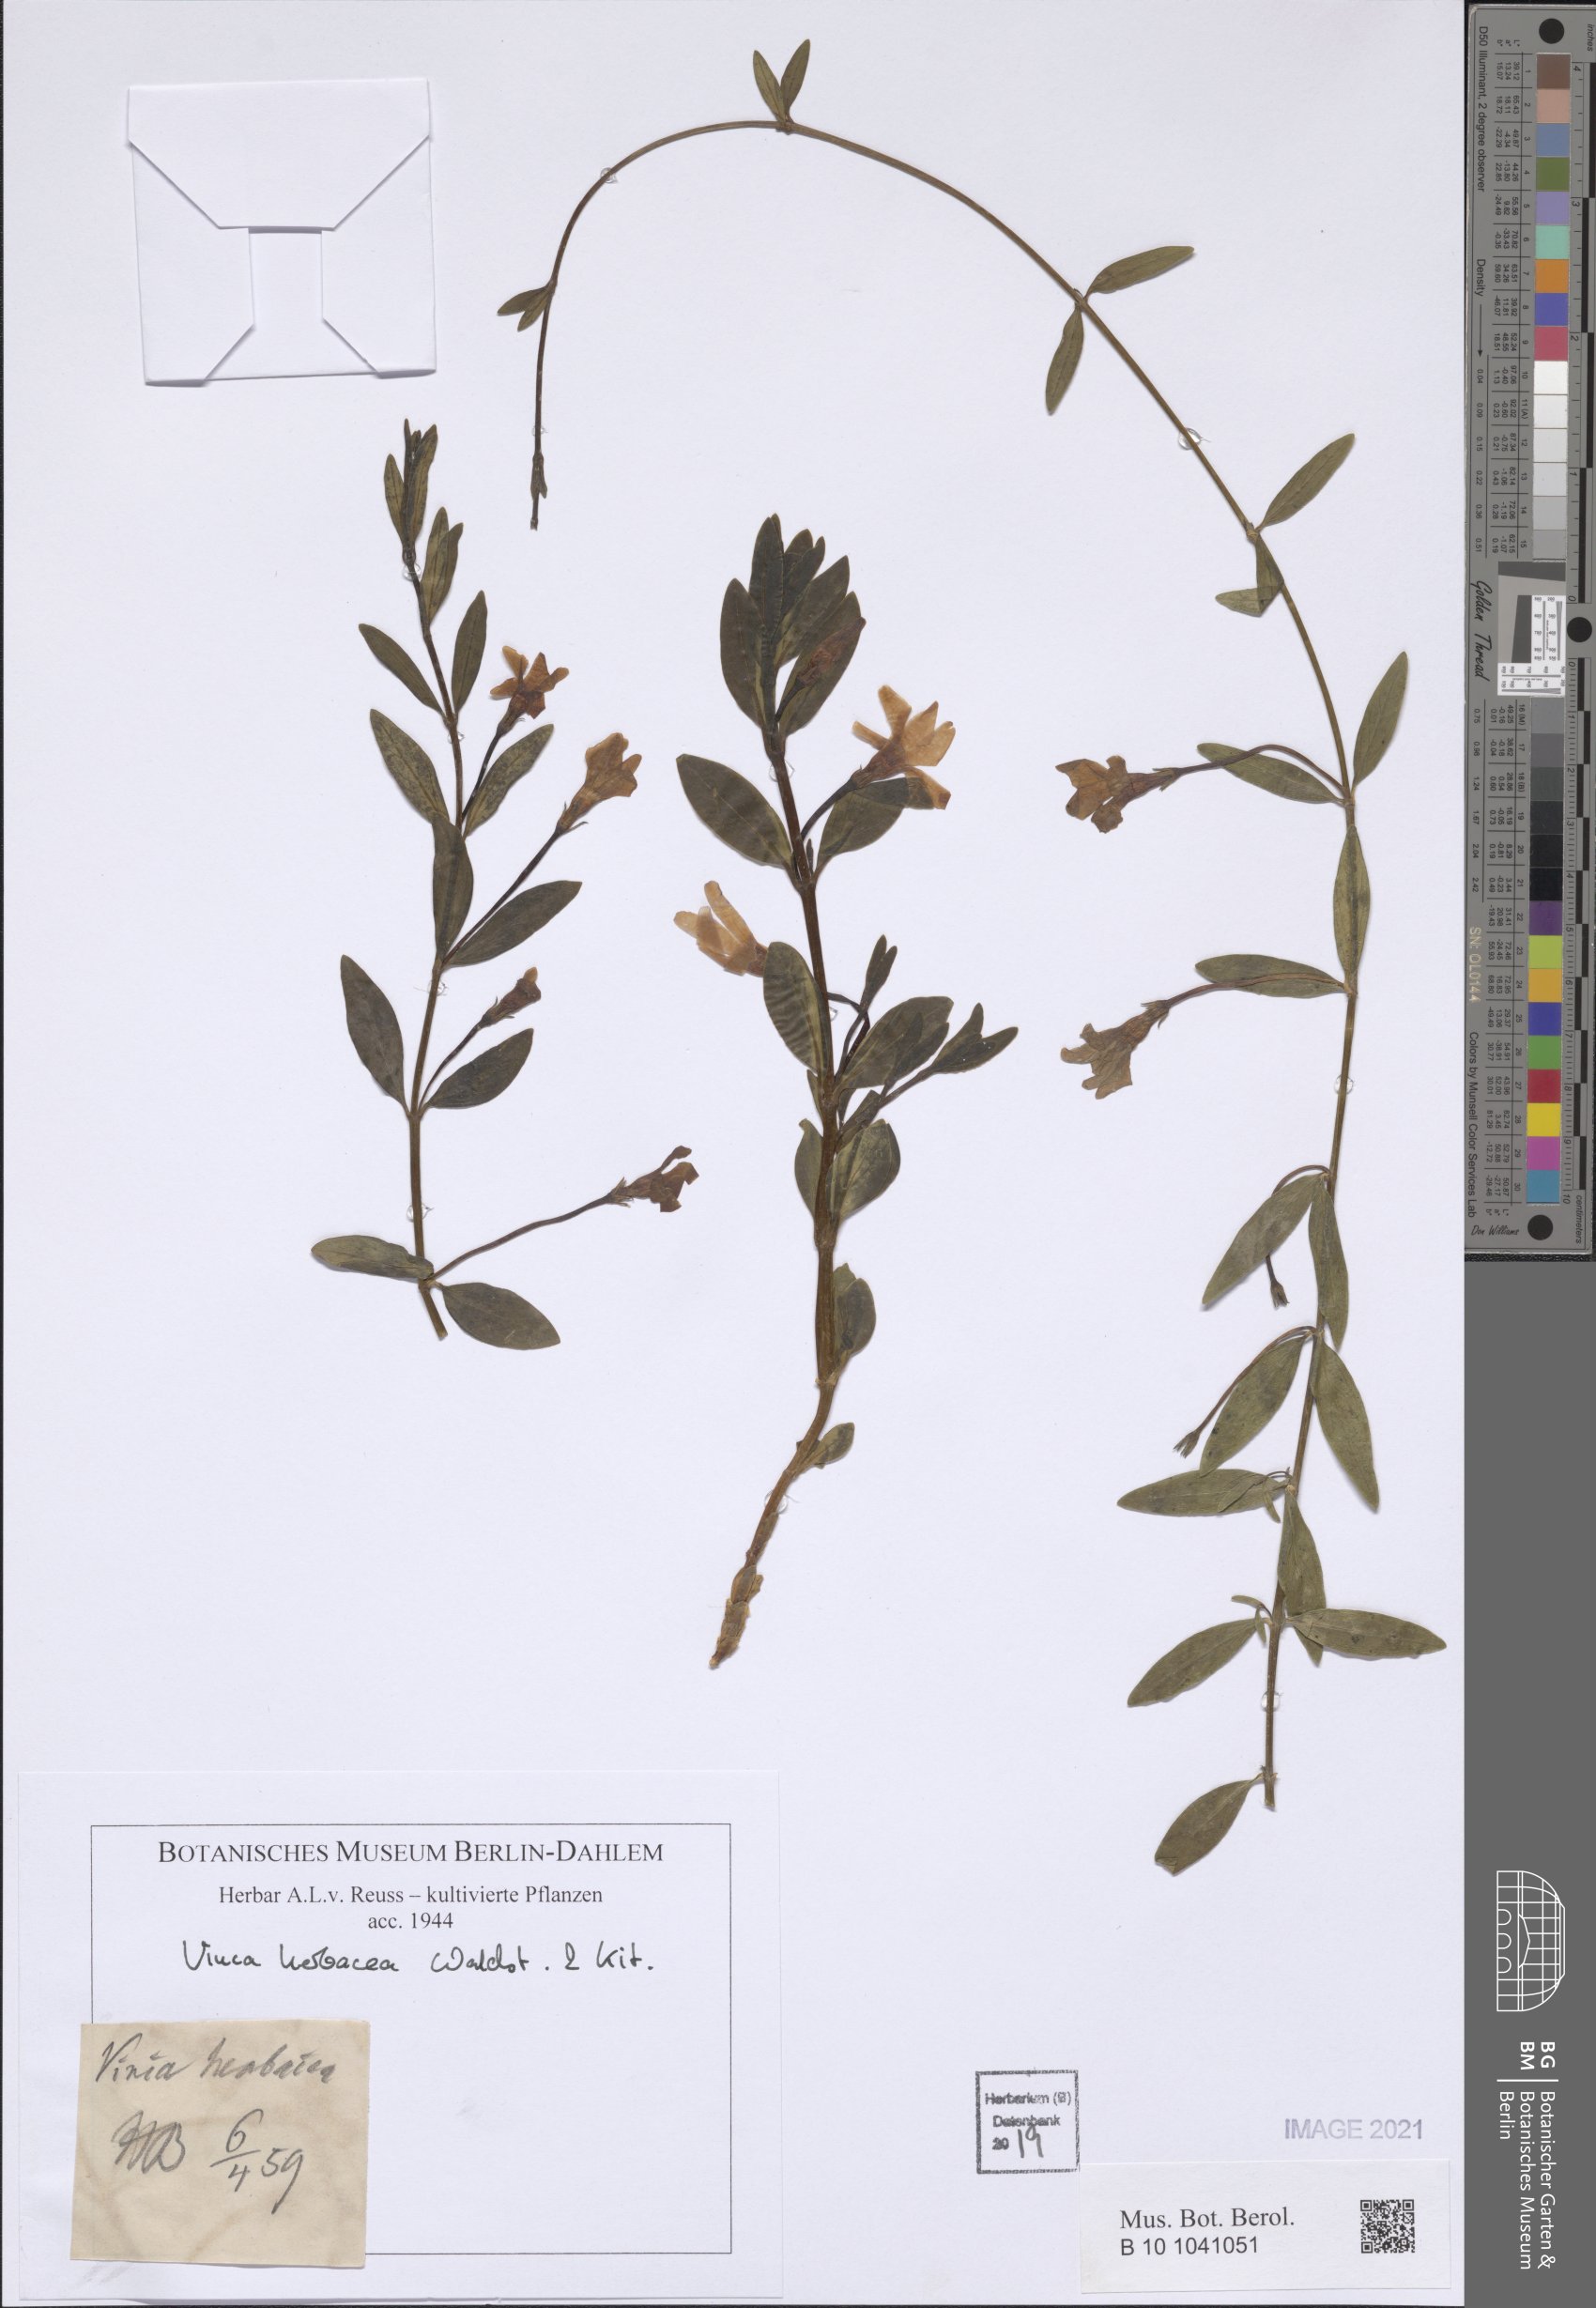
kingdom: Plantae
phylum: Tracheophyta
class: Magnoliopsida
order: Gentianales
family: Apocynaceae
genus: Vinca
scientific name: Vinca herbacea
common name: Herbaceous periwinkle
